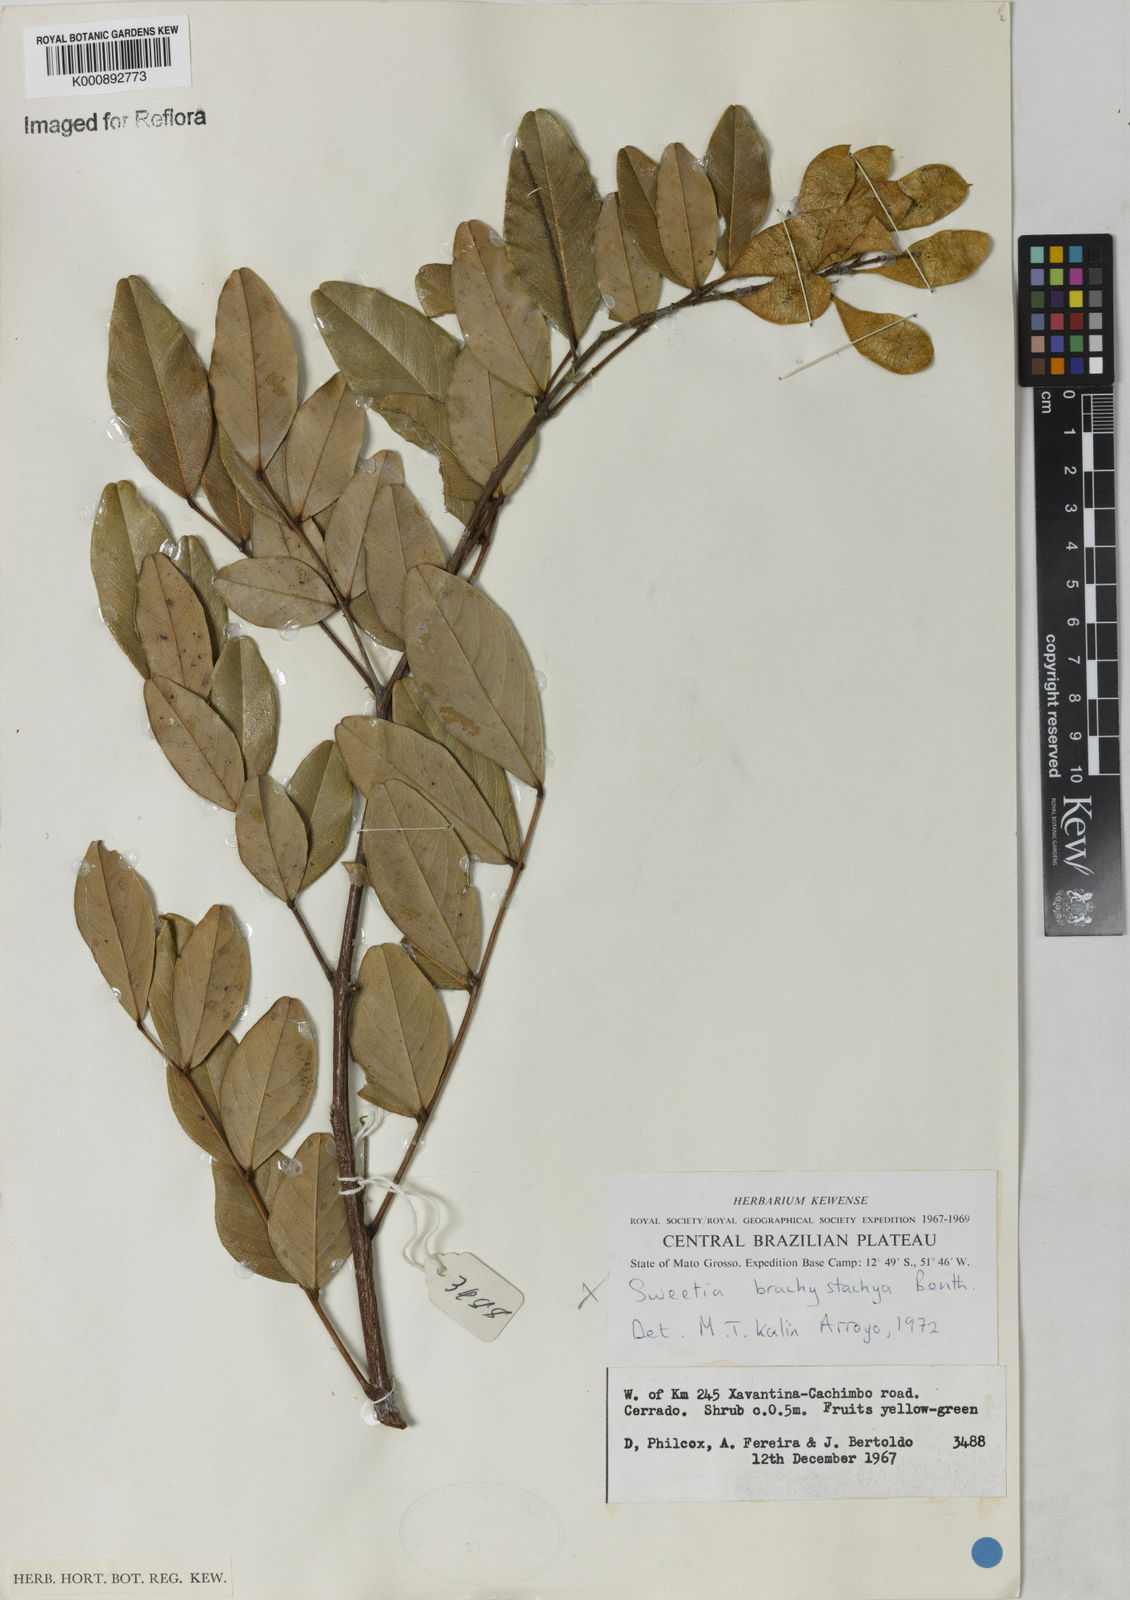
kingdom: Plantae
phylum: Tracheophyta
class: Magnoliopsida
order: Fabales
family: Fabaceae
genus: Leptolobium
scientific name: Leptolobium
